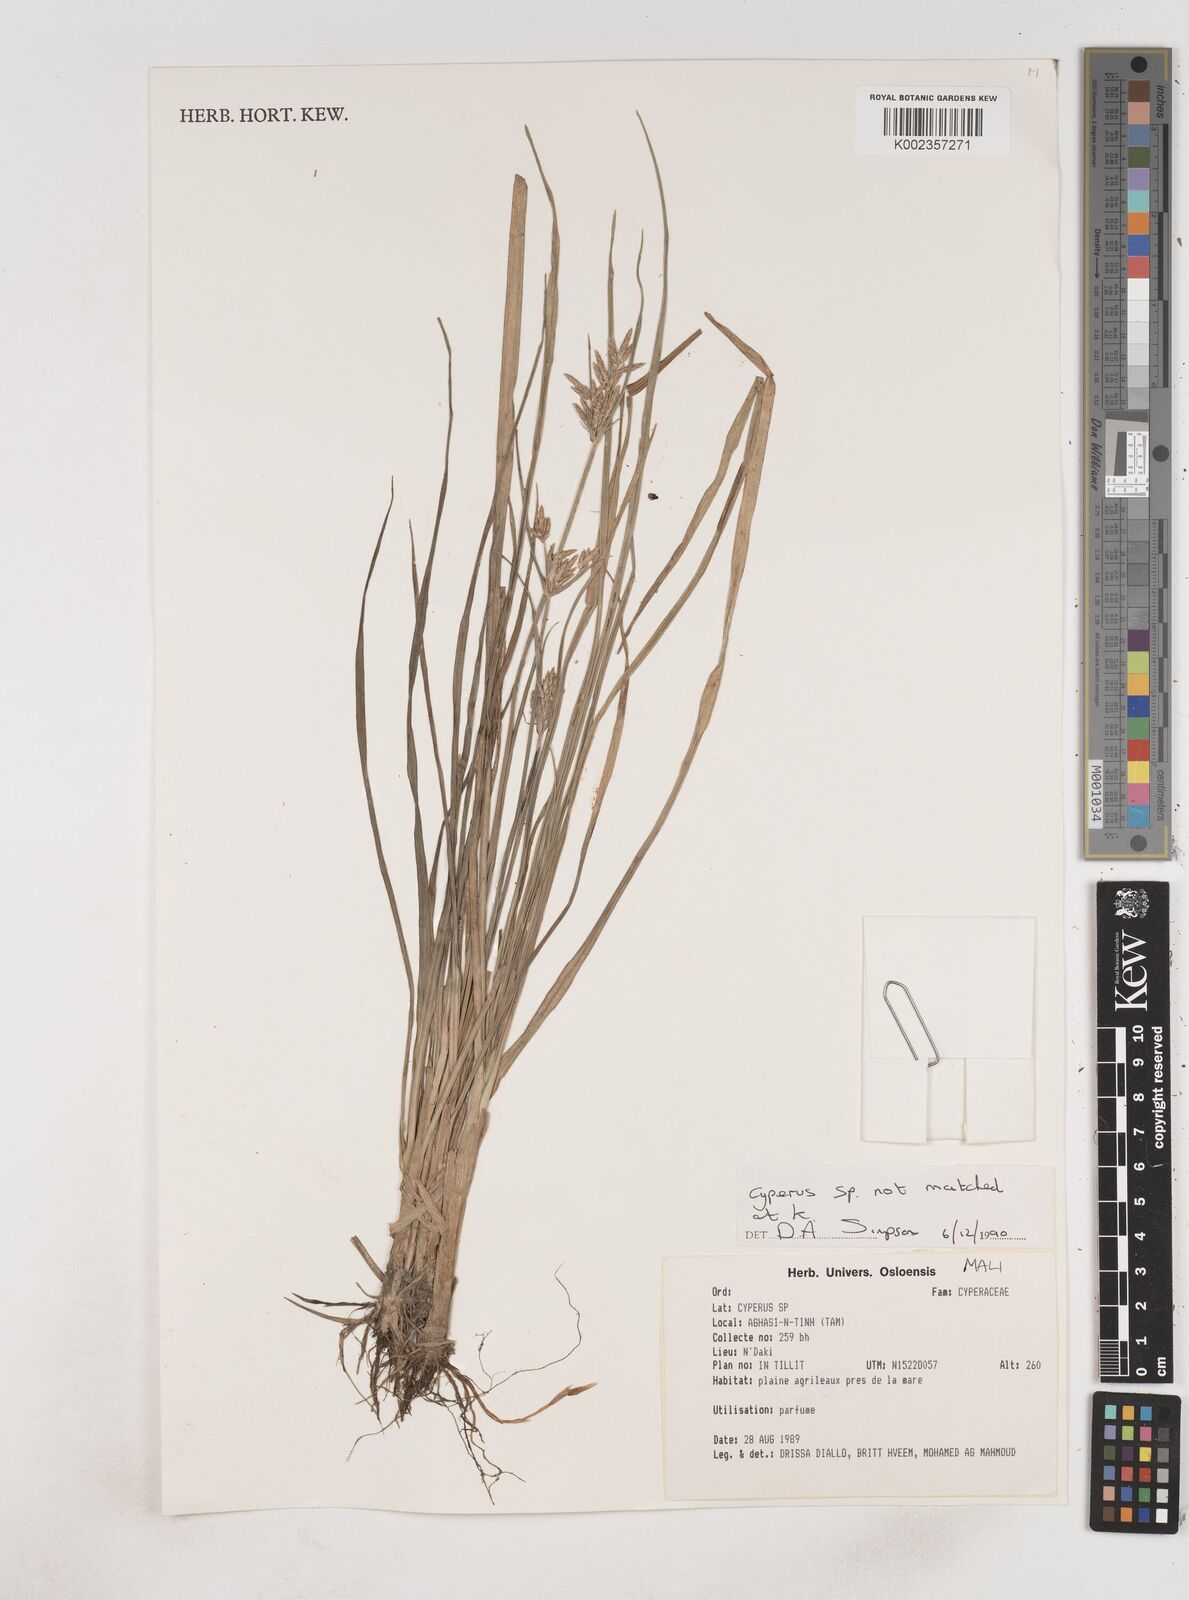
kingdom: Plantae
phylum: Tracheophyta
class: Liliopsida
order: Poales
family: Cyperaceae
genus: Cyperus
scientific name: Cyperus
